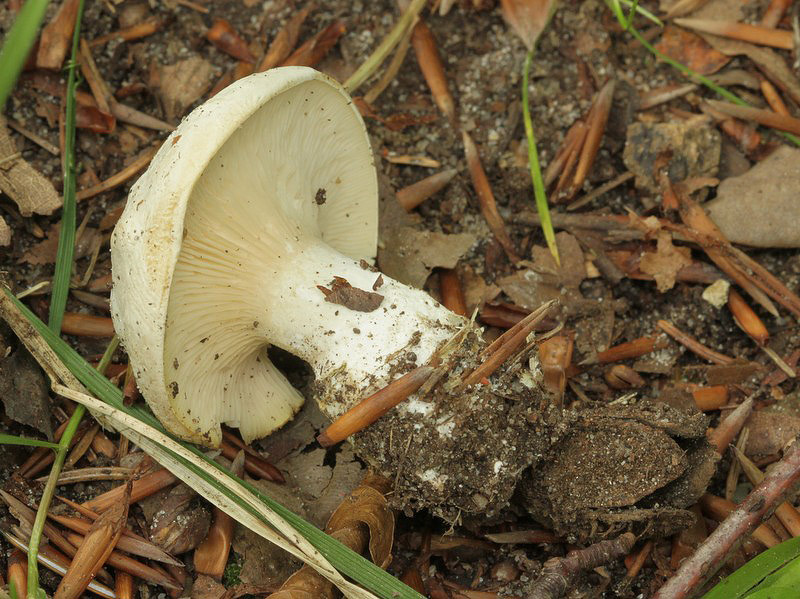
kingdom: Fungi
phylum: Basidiomycota
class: Agaricomycetes
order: Agaricales
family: Entolomataceae
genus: Clitopilus
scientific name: Clitopilus prunulus
